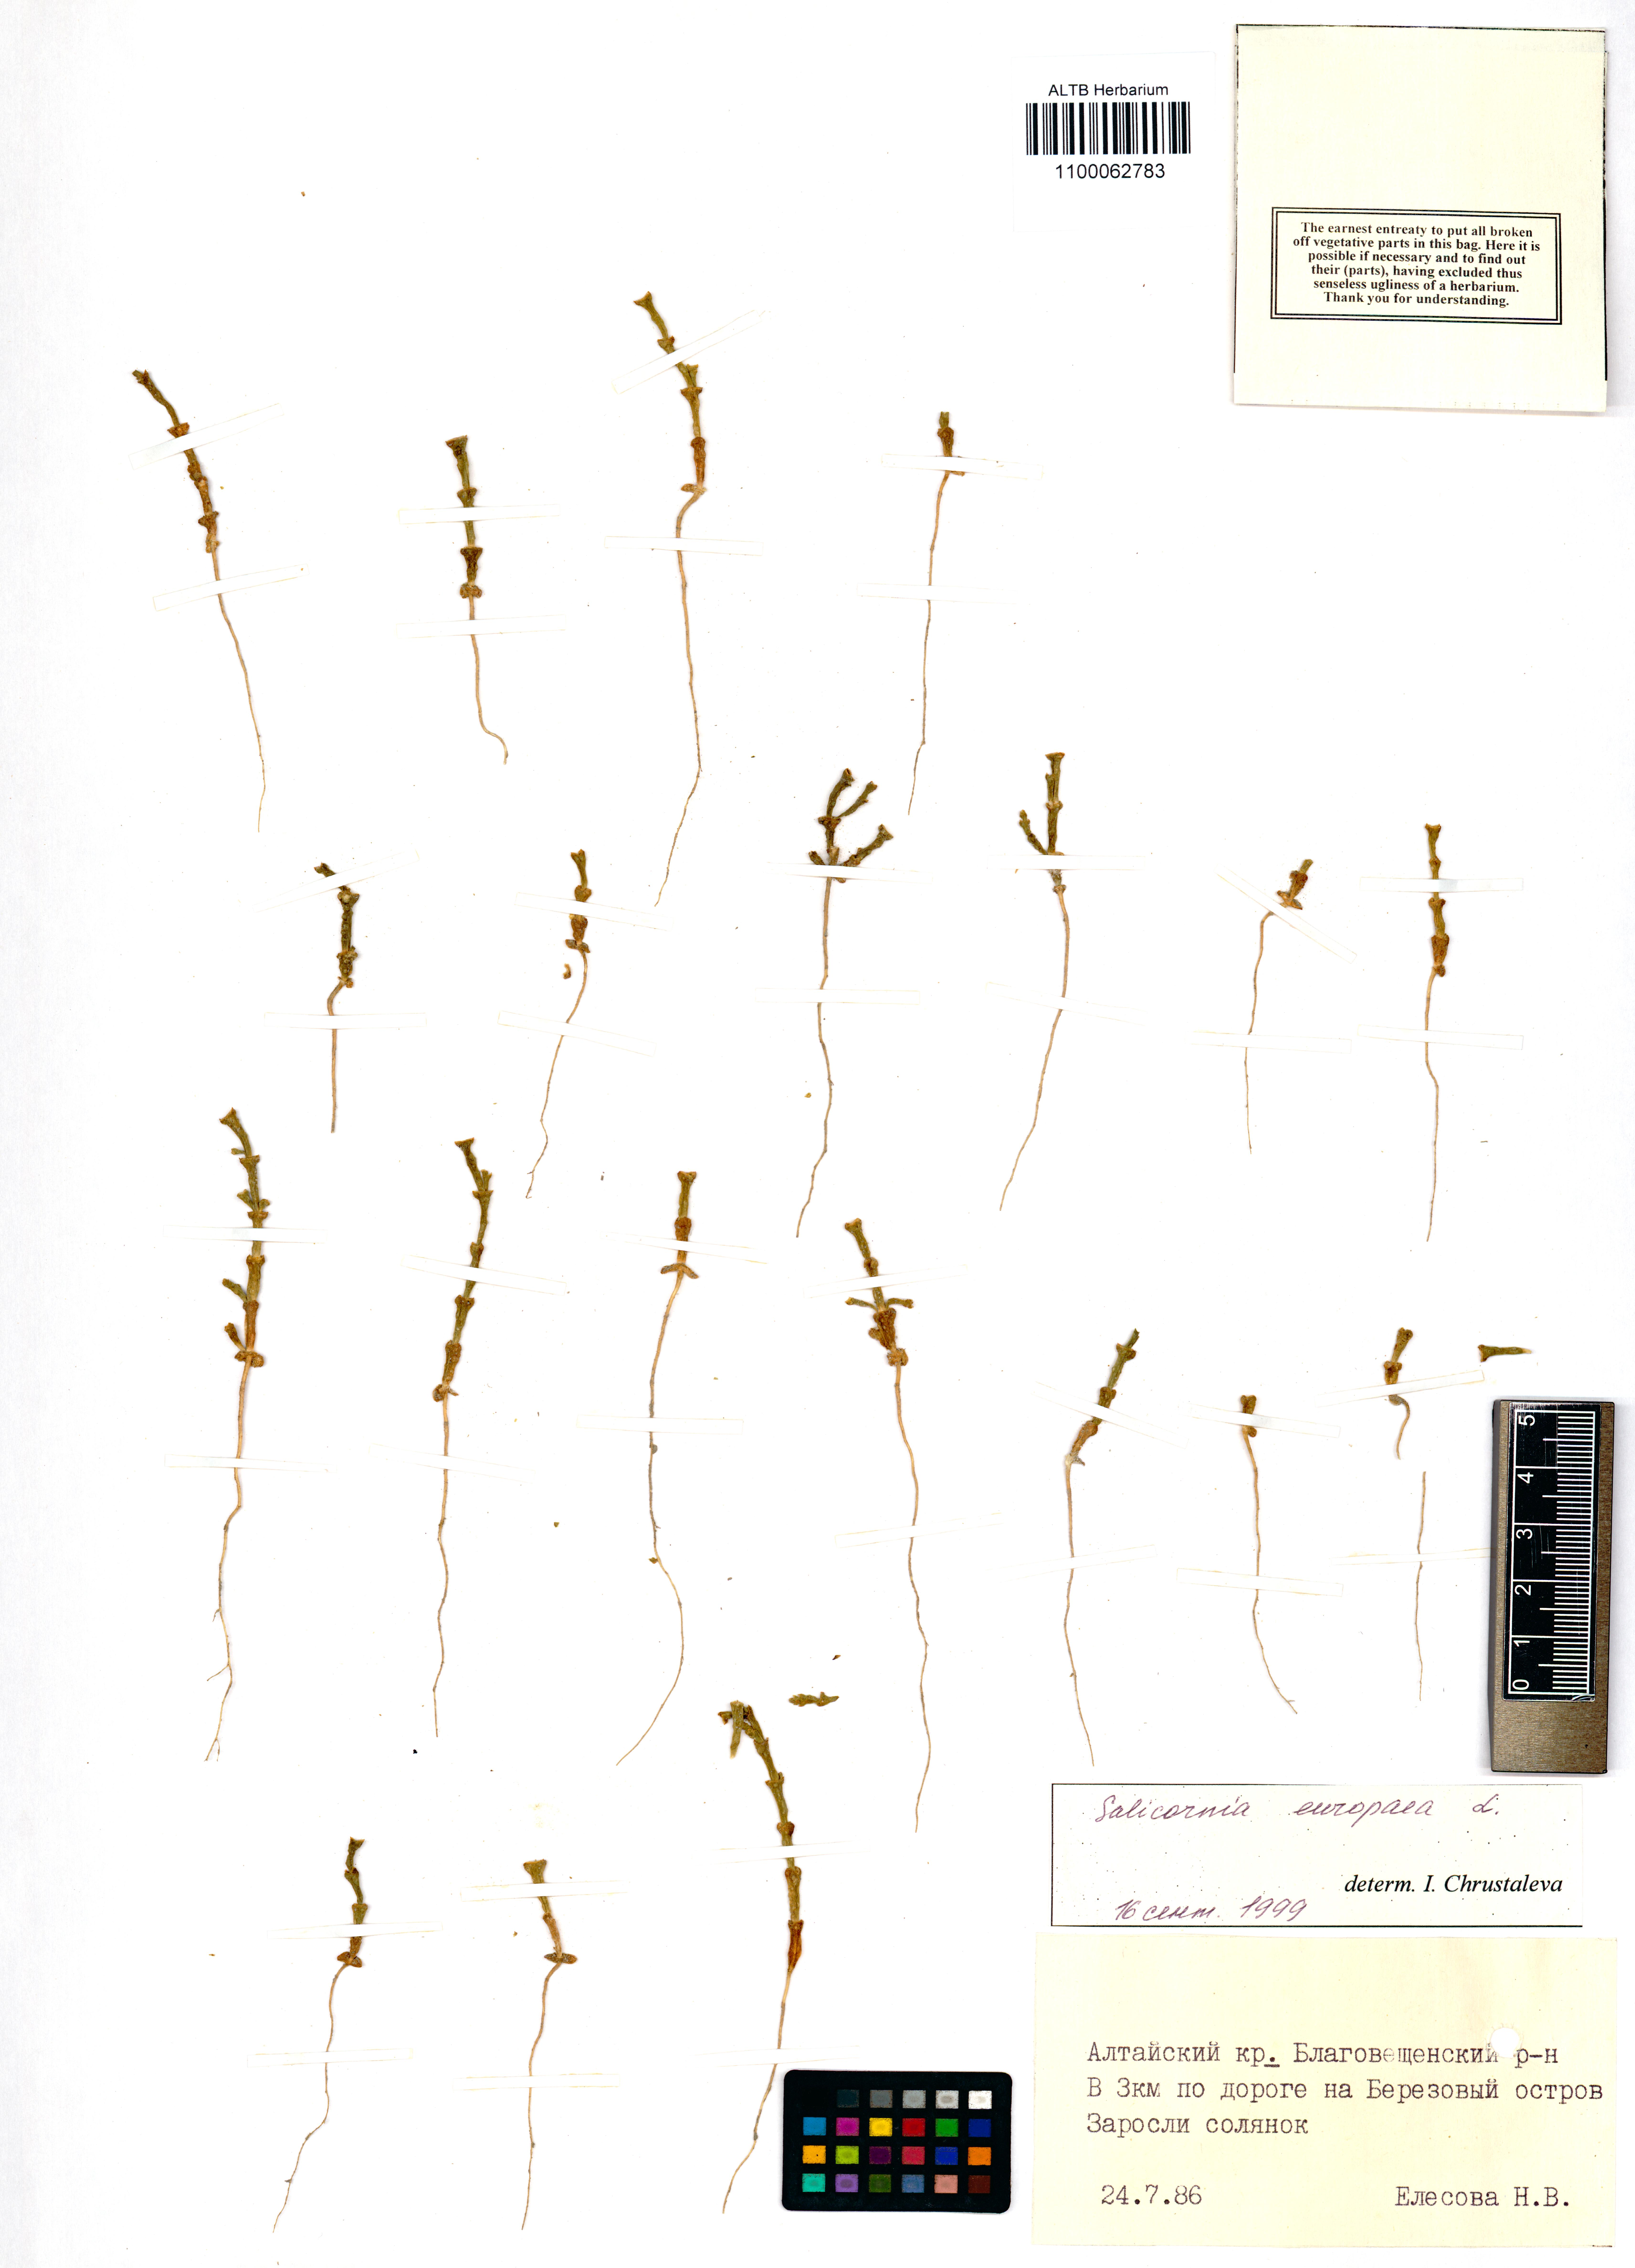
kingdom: Plantae
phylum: Tracheophyta
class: Magnoliopsida
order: Caryophyllales
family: Amaranthaceae
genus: Salicornia
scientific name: Salicornia europaea
